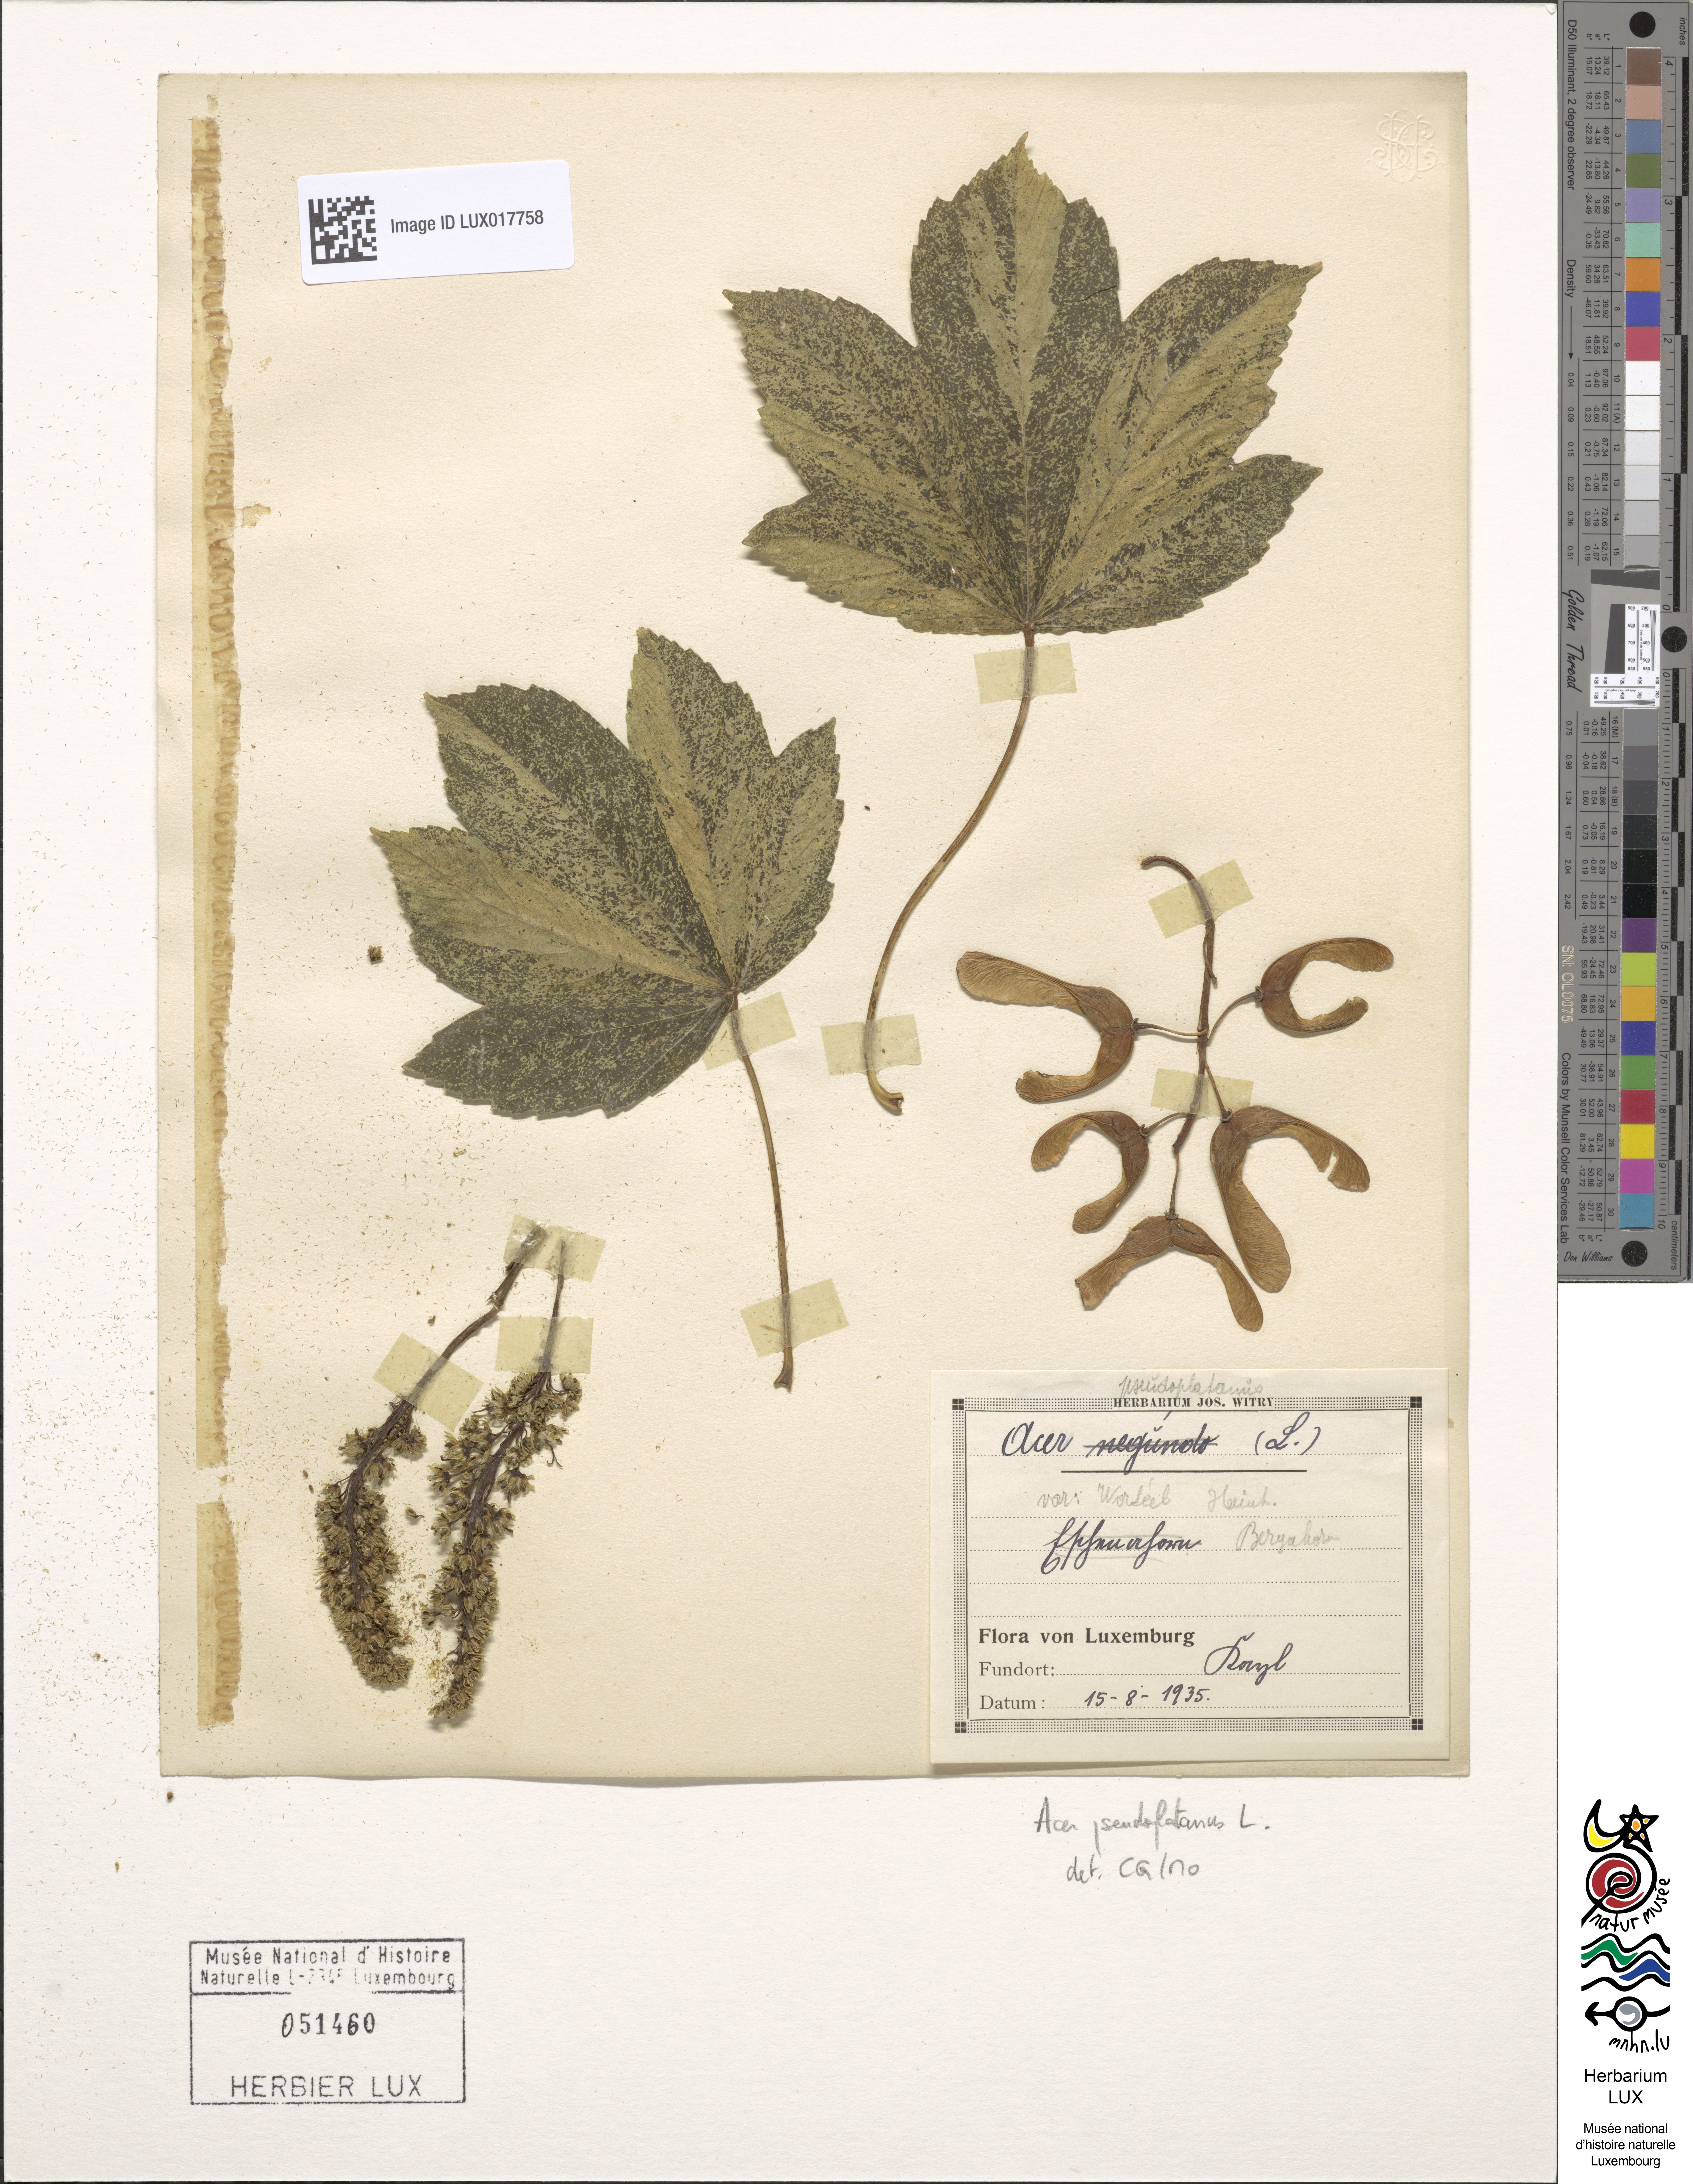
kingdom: Plantae
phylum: Tracheophyta
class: Magnoliopsida
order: Sapindales
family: Sapindaceae
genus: Acer
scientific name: Acer pseudoplatanus
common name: Sycamore
